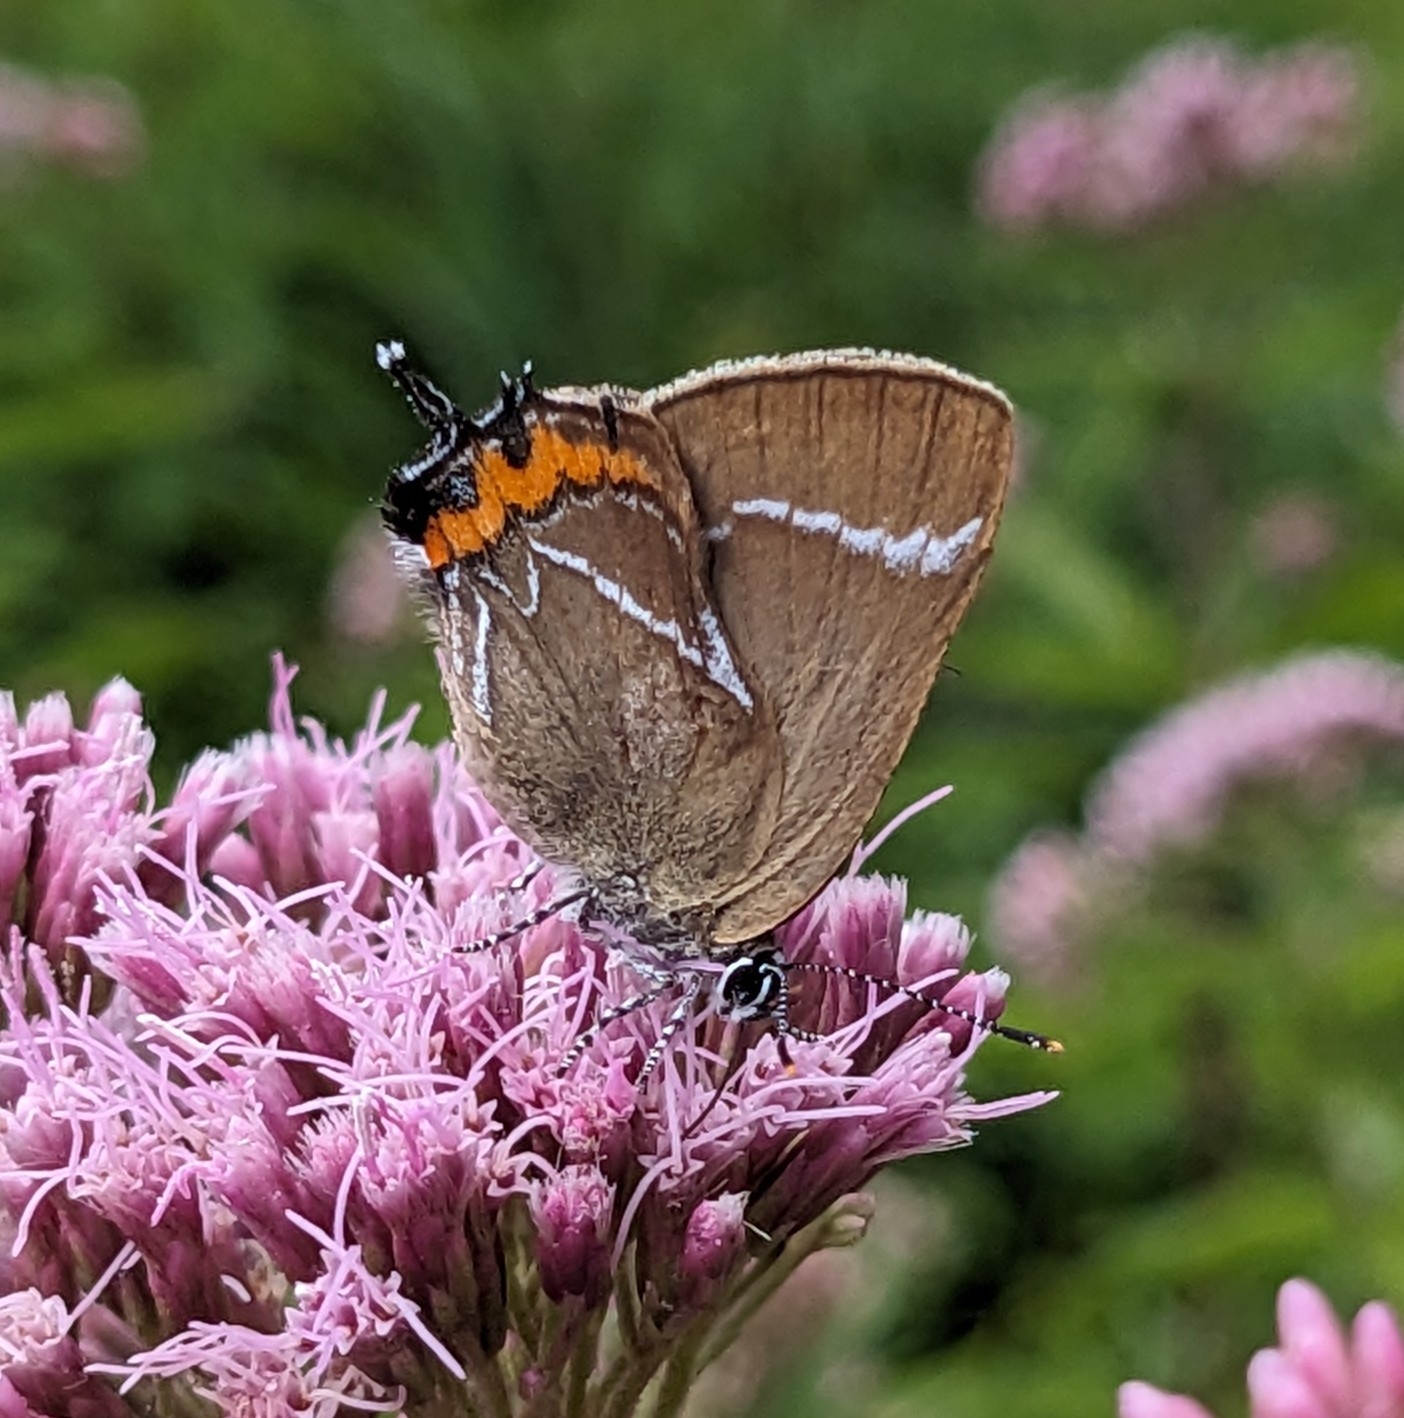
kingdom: Animalia
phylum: Arthropoda
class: Insecta
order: Lepidoptera
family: Lycaenidae
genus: Satyrium
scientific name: Satyrium w-album
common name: Det hvide W
